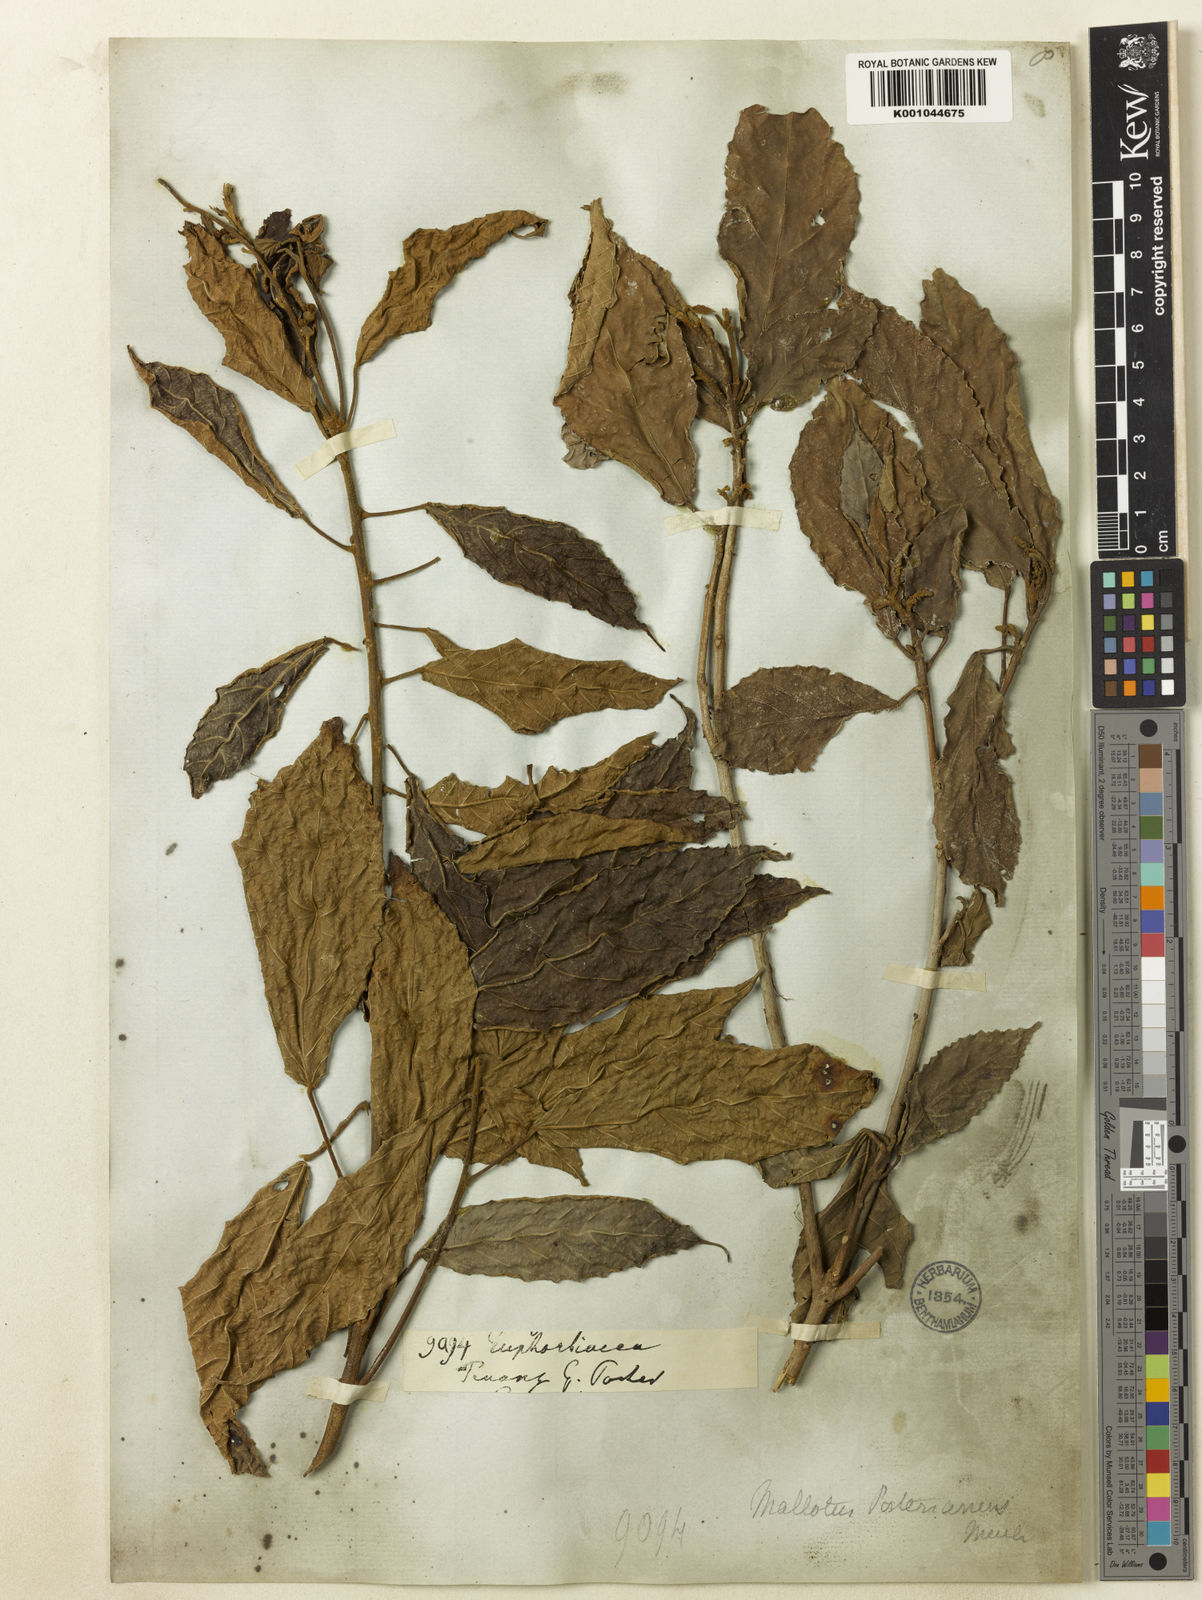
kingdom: Plantae
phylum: Tracheophyta
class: Magnoliopsida
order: Malpighiales
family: Euphorbiaceae
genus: Mallotus
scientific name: Mallotus peltatus
